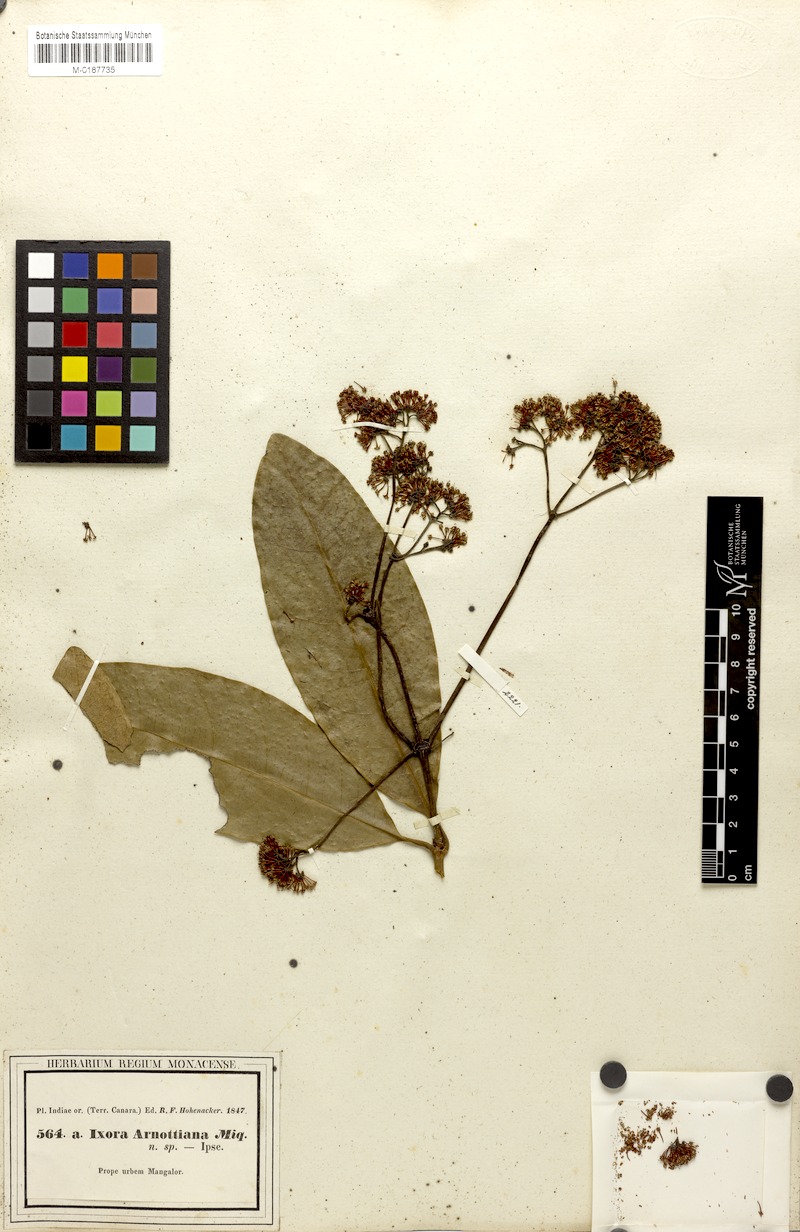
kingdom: Plantae
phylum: Tracheophyta
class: Magnoliopsida
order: Gentianales
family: Rubiaceae
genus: Ixora
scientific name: Ixora brachiata
